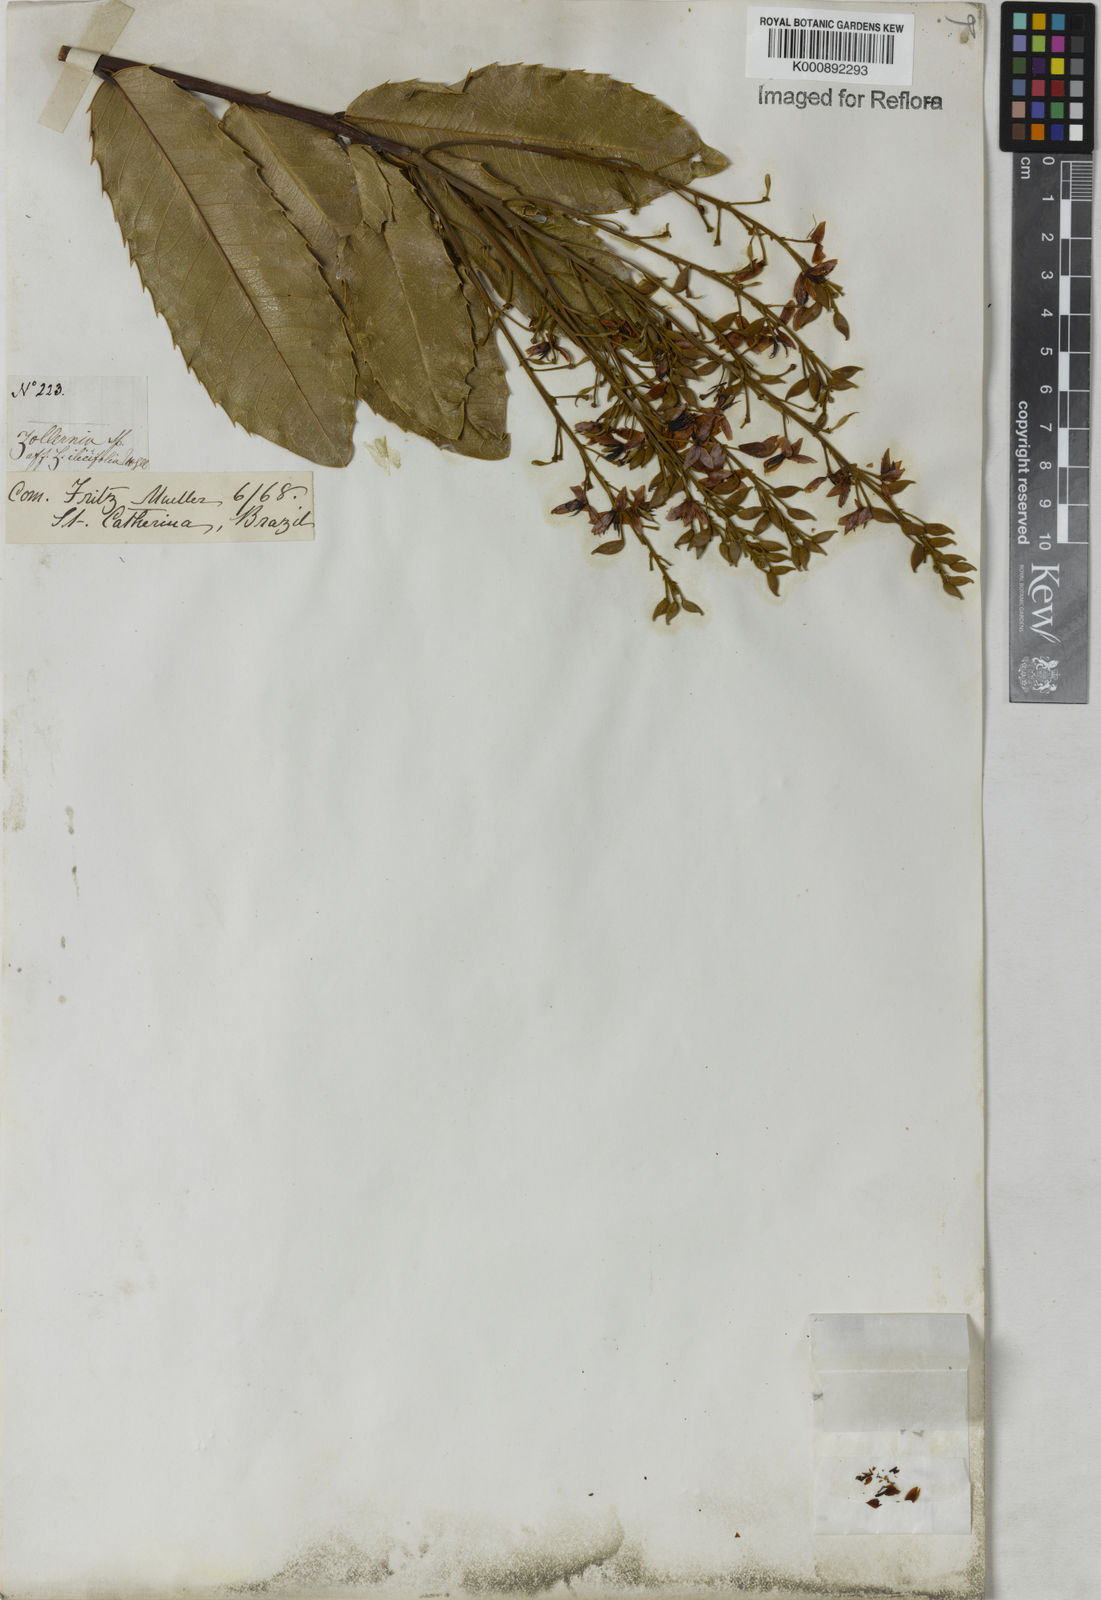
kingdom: Plantae
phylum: Tracheophyta
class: Magnoliopsida
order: Fabales
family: Fabaceae
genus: Zollernia
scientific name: Zollernia ilicifolia
